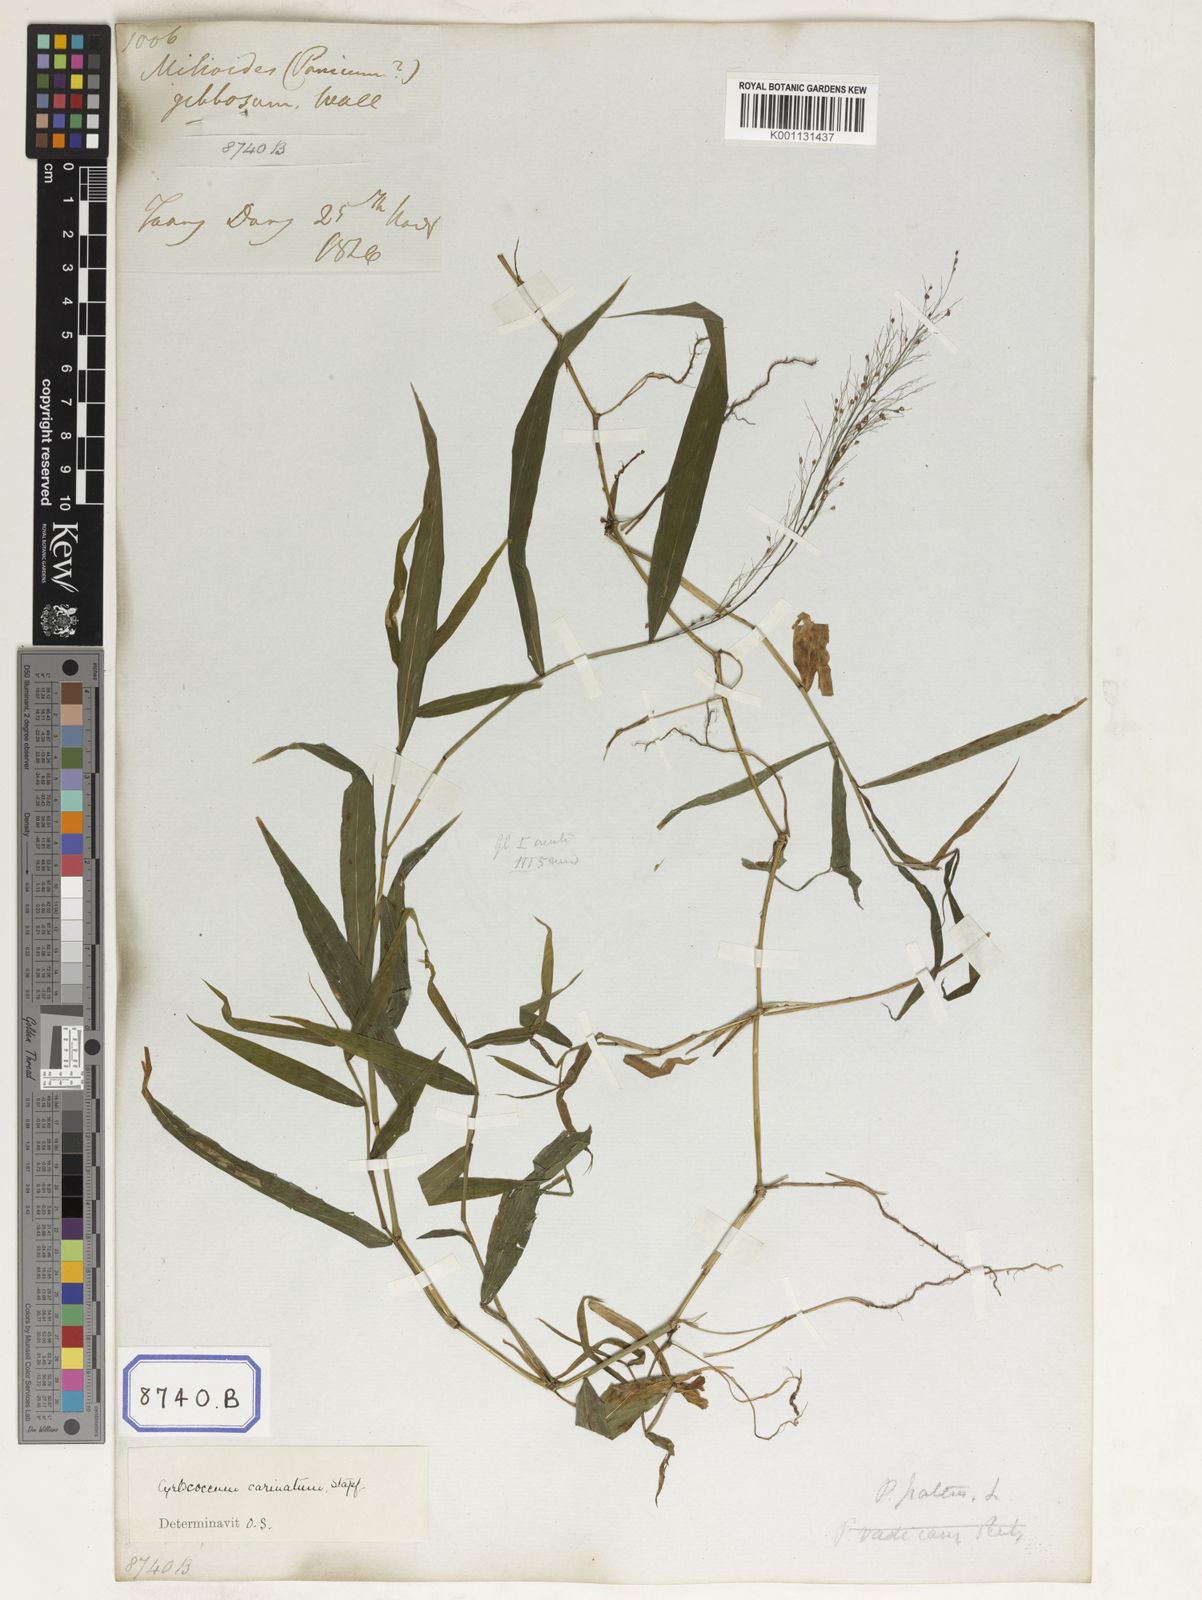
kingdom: Plantae
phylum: Tracheophyta
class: Liliopsida
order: Poales
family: Poaceae
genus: Panicum
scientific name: Panicum
